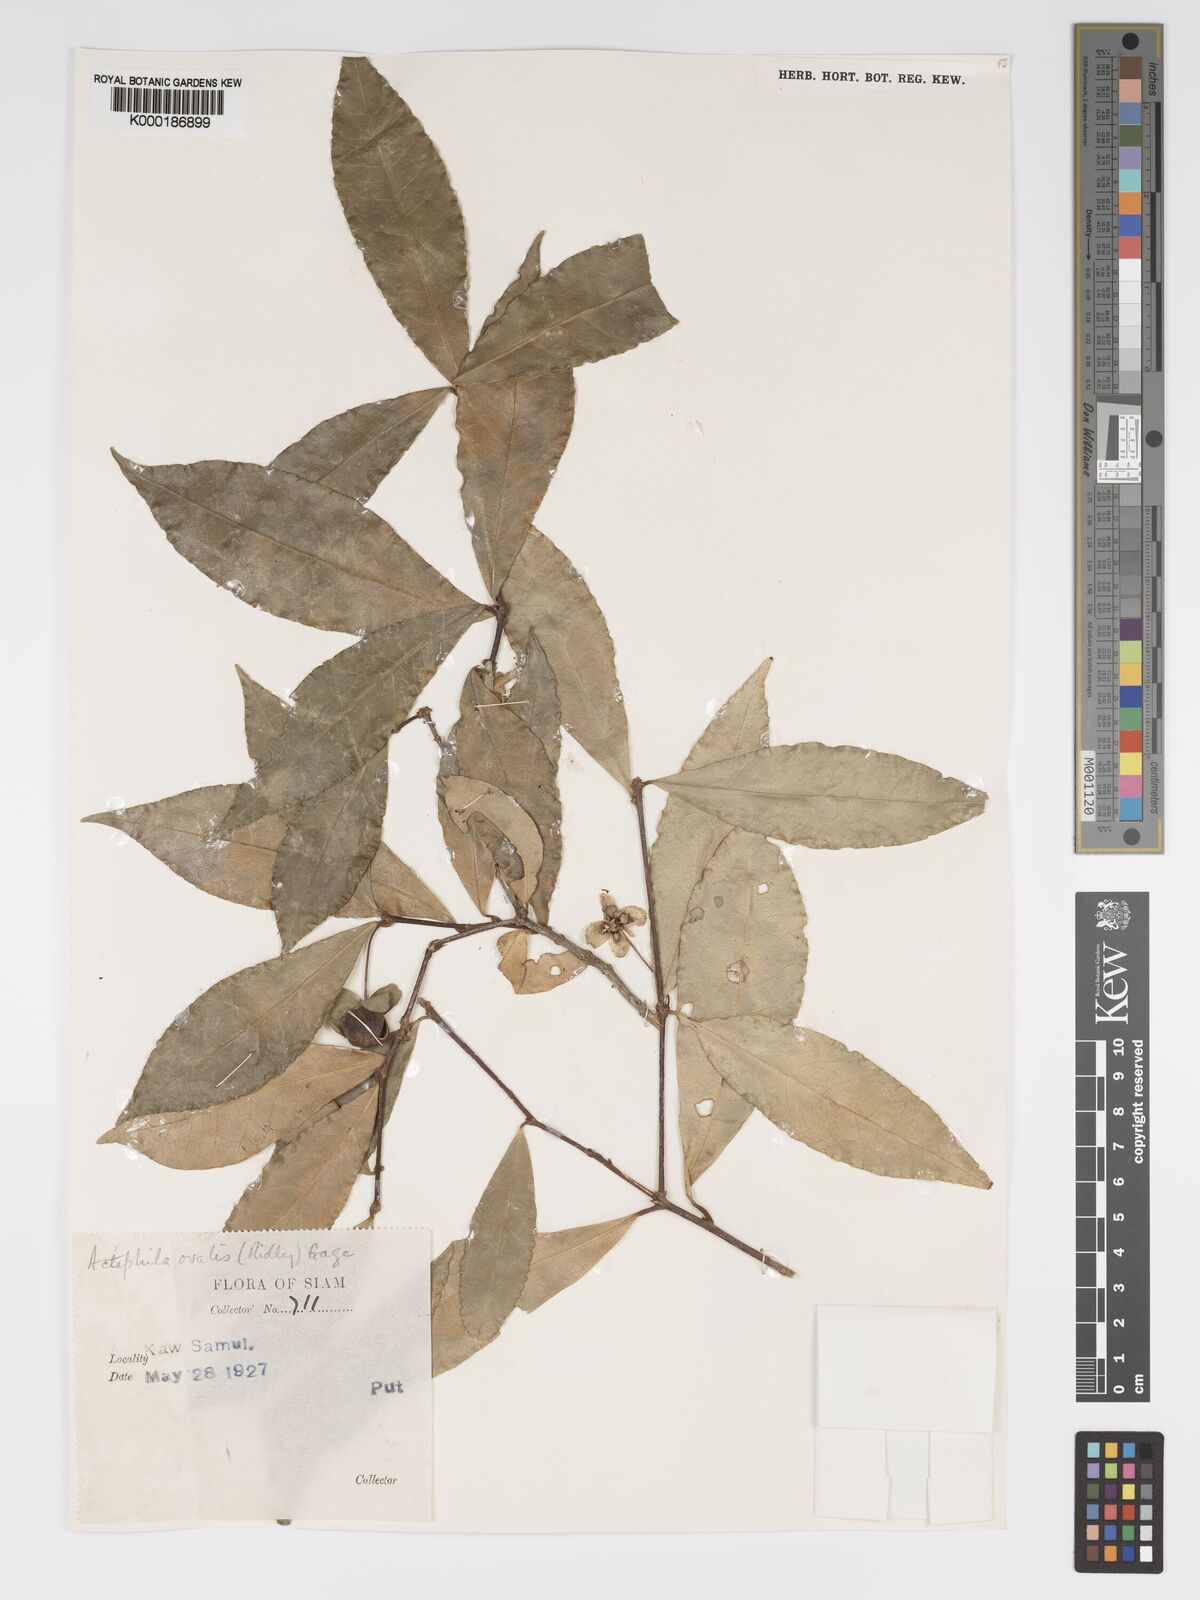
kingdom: Plantae
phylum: Tracheophyta
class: Magnoliopsida
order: Malpighiales
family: Phyllanthaceae
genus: Actephila
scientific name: Actephila ovalis
